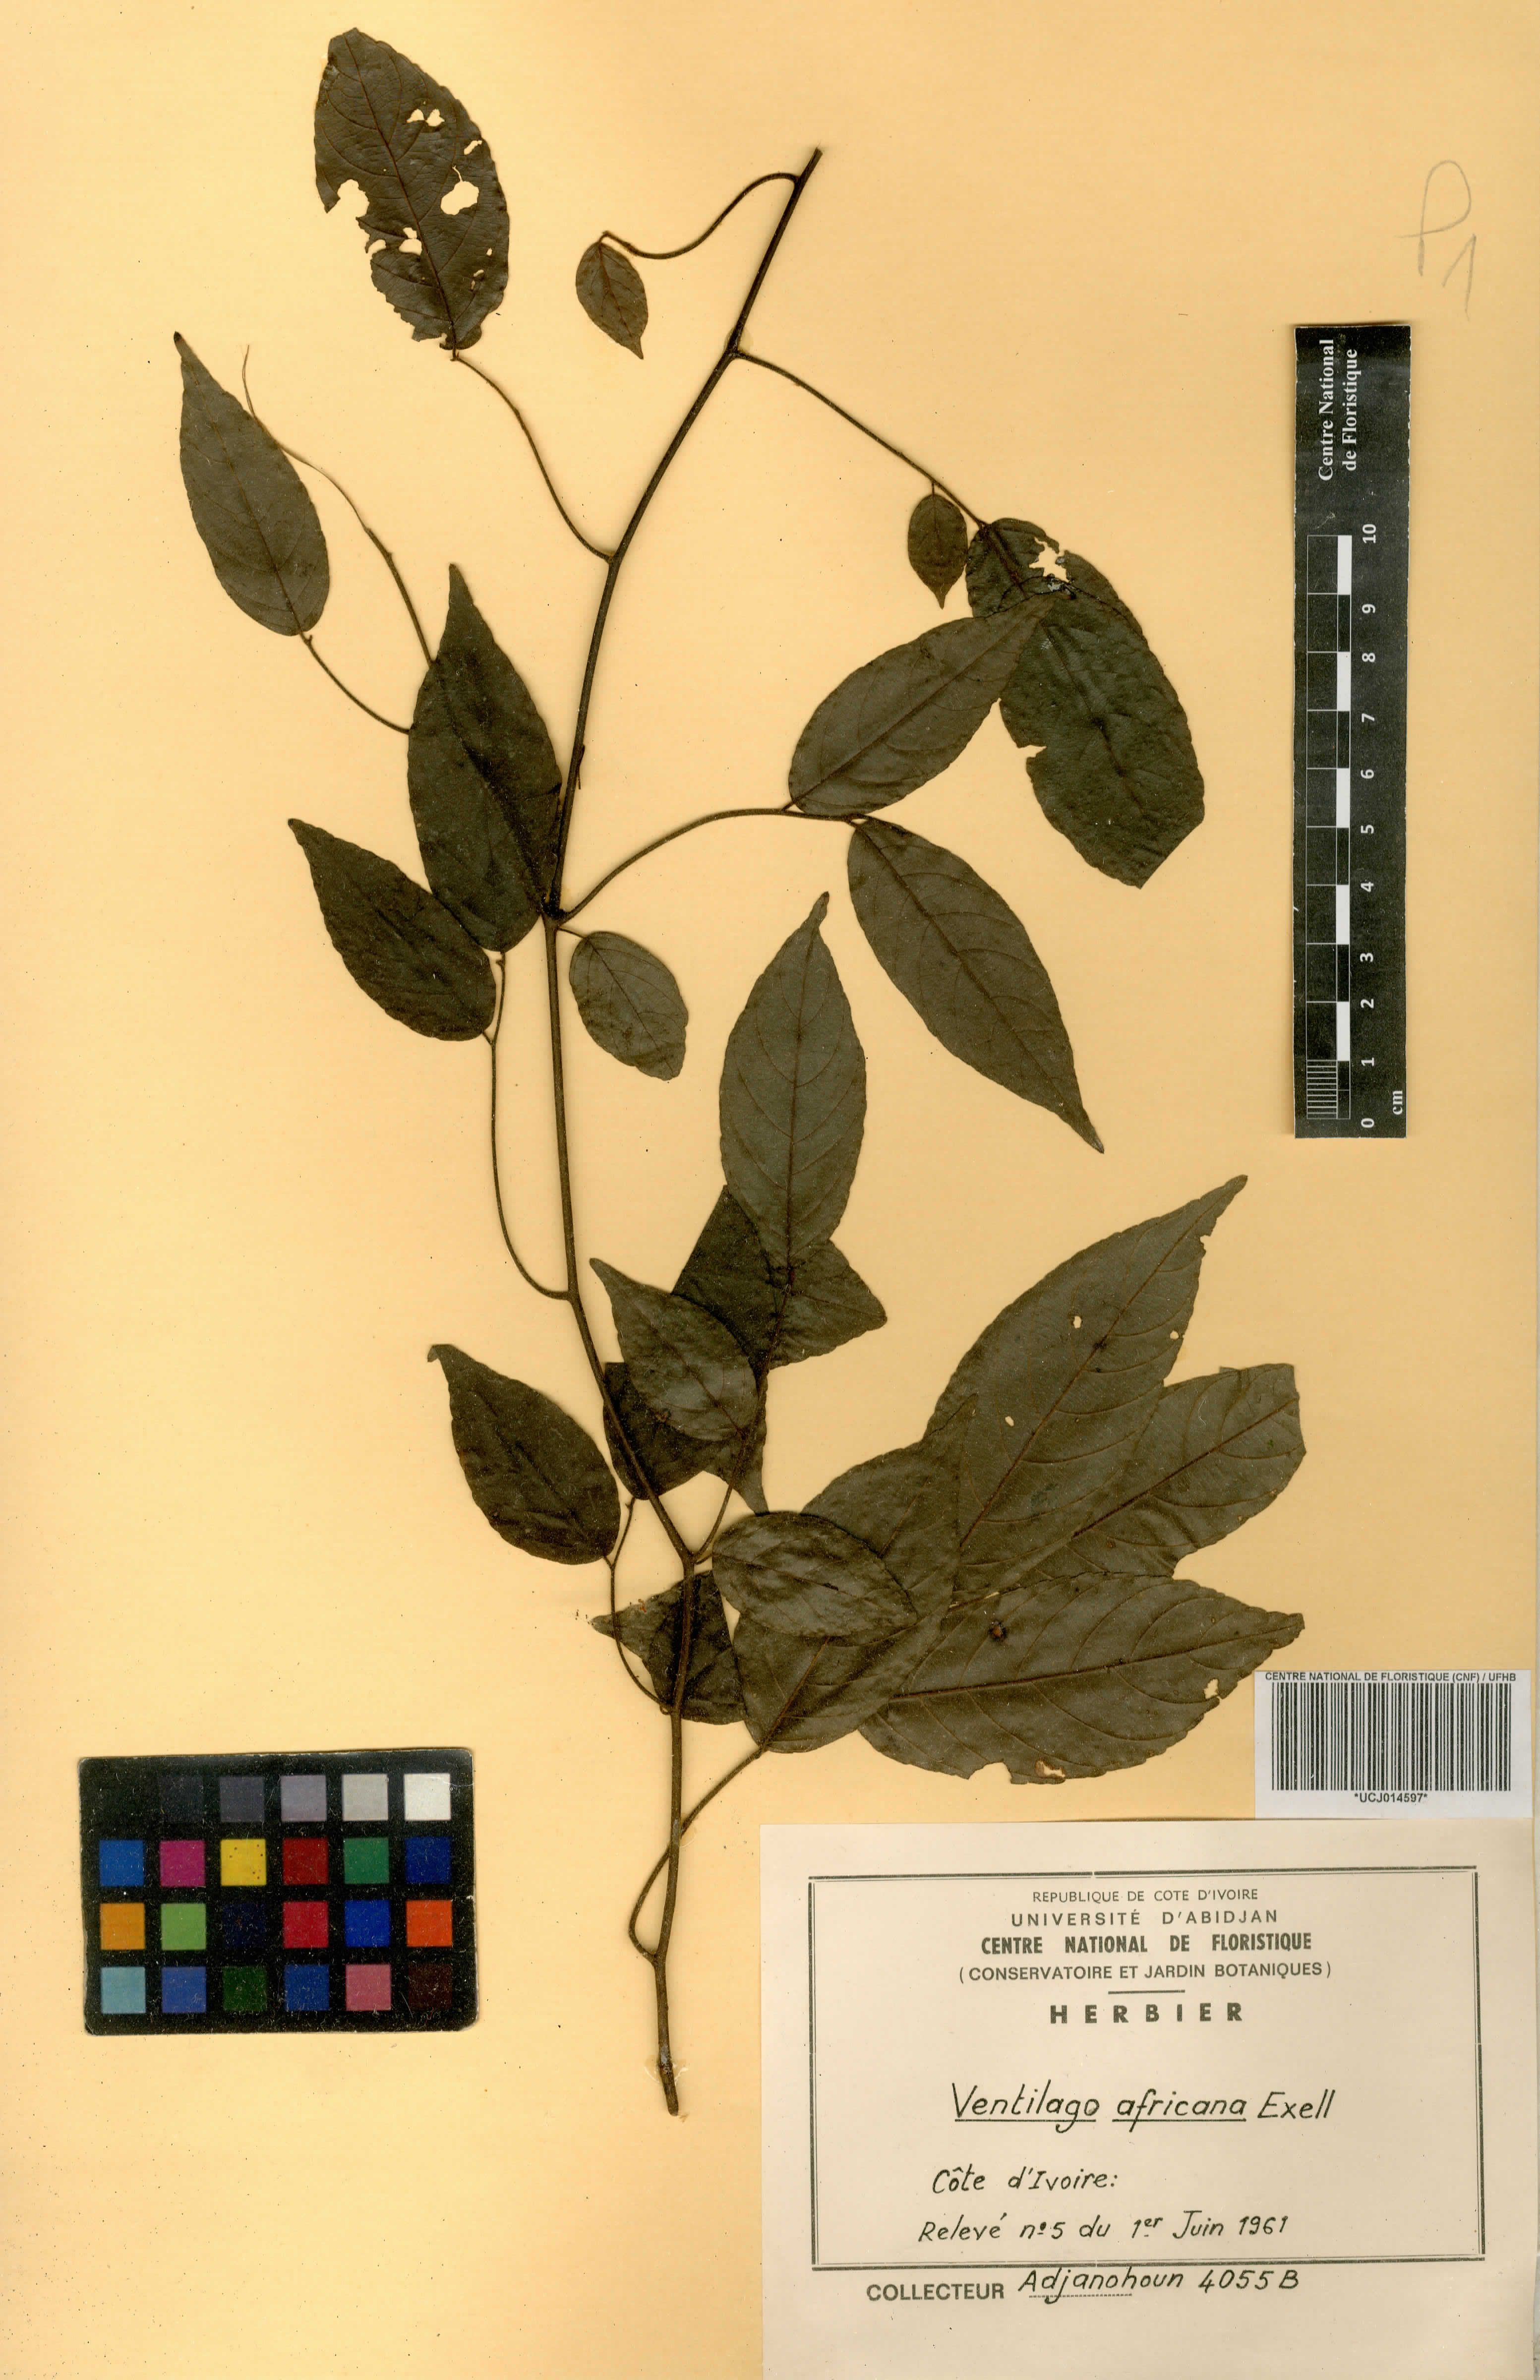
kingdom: Plantae
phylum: Tracheophyta
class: Magnoliopsida
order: Rosales
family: Rhamnaceae
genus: Ventilago
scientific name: Ventilago africana
